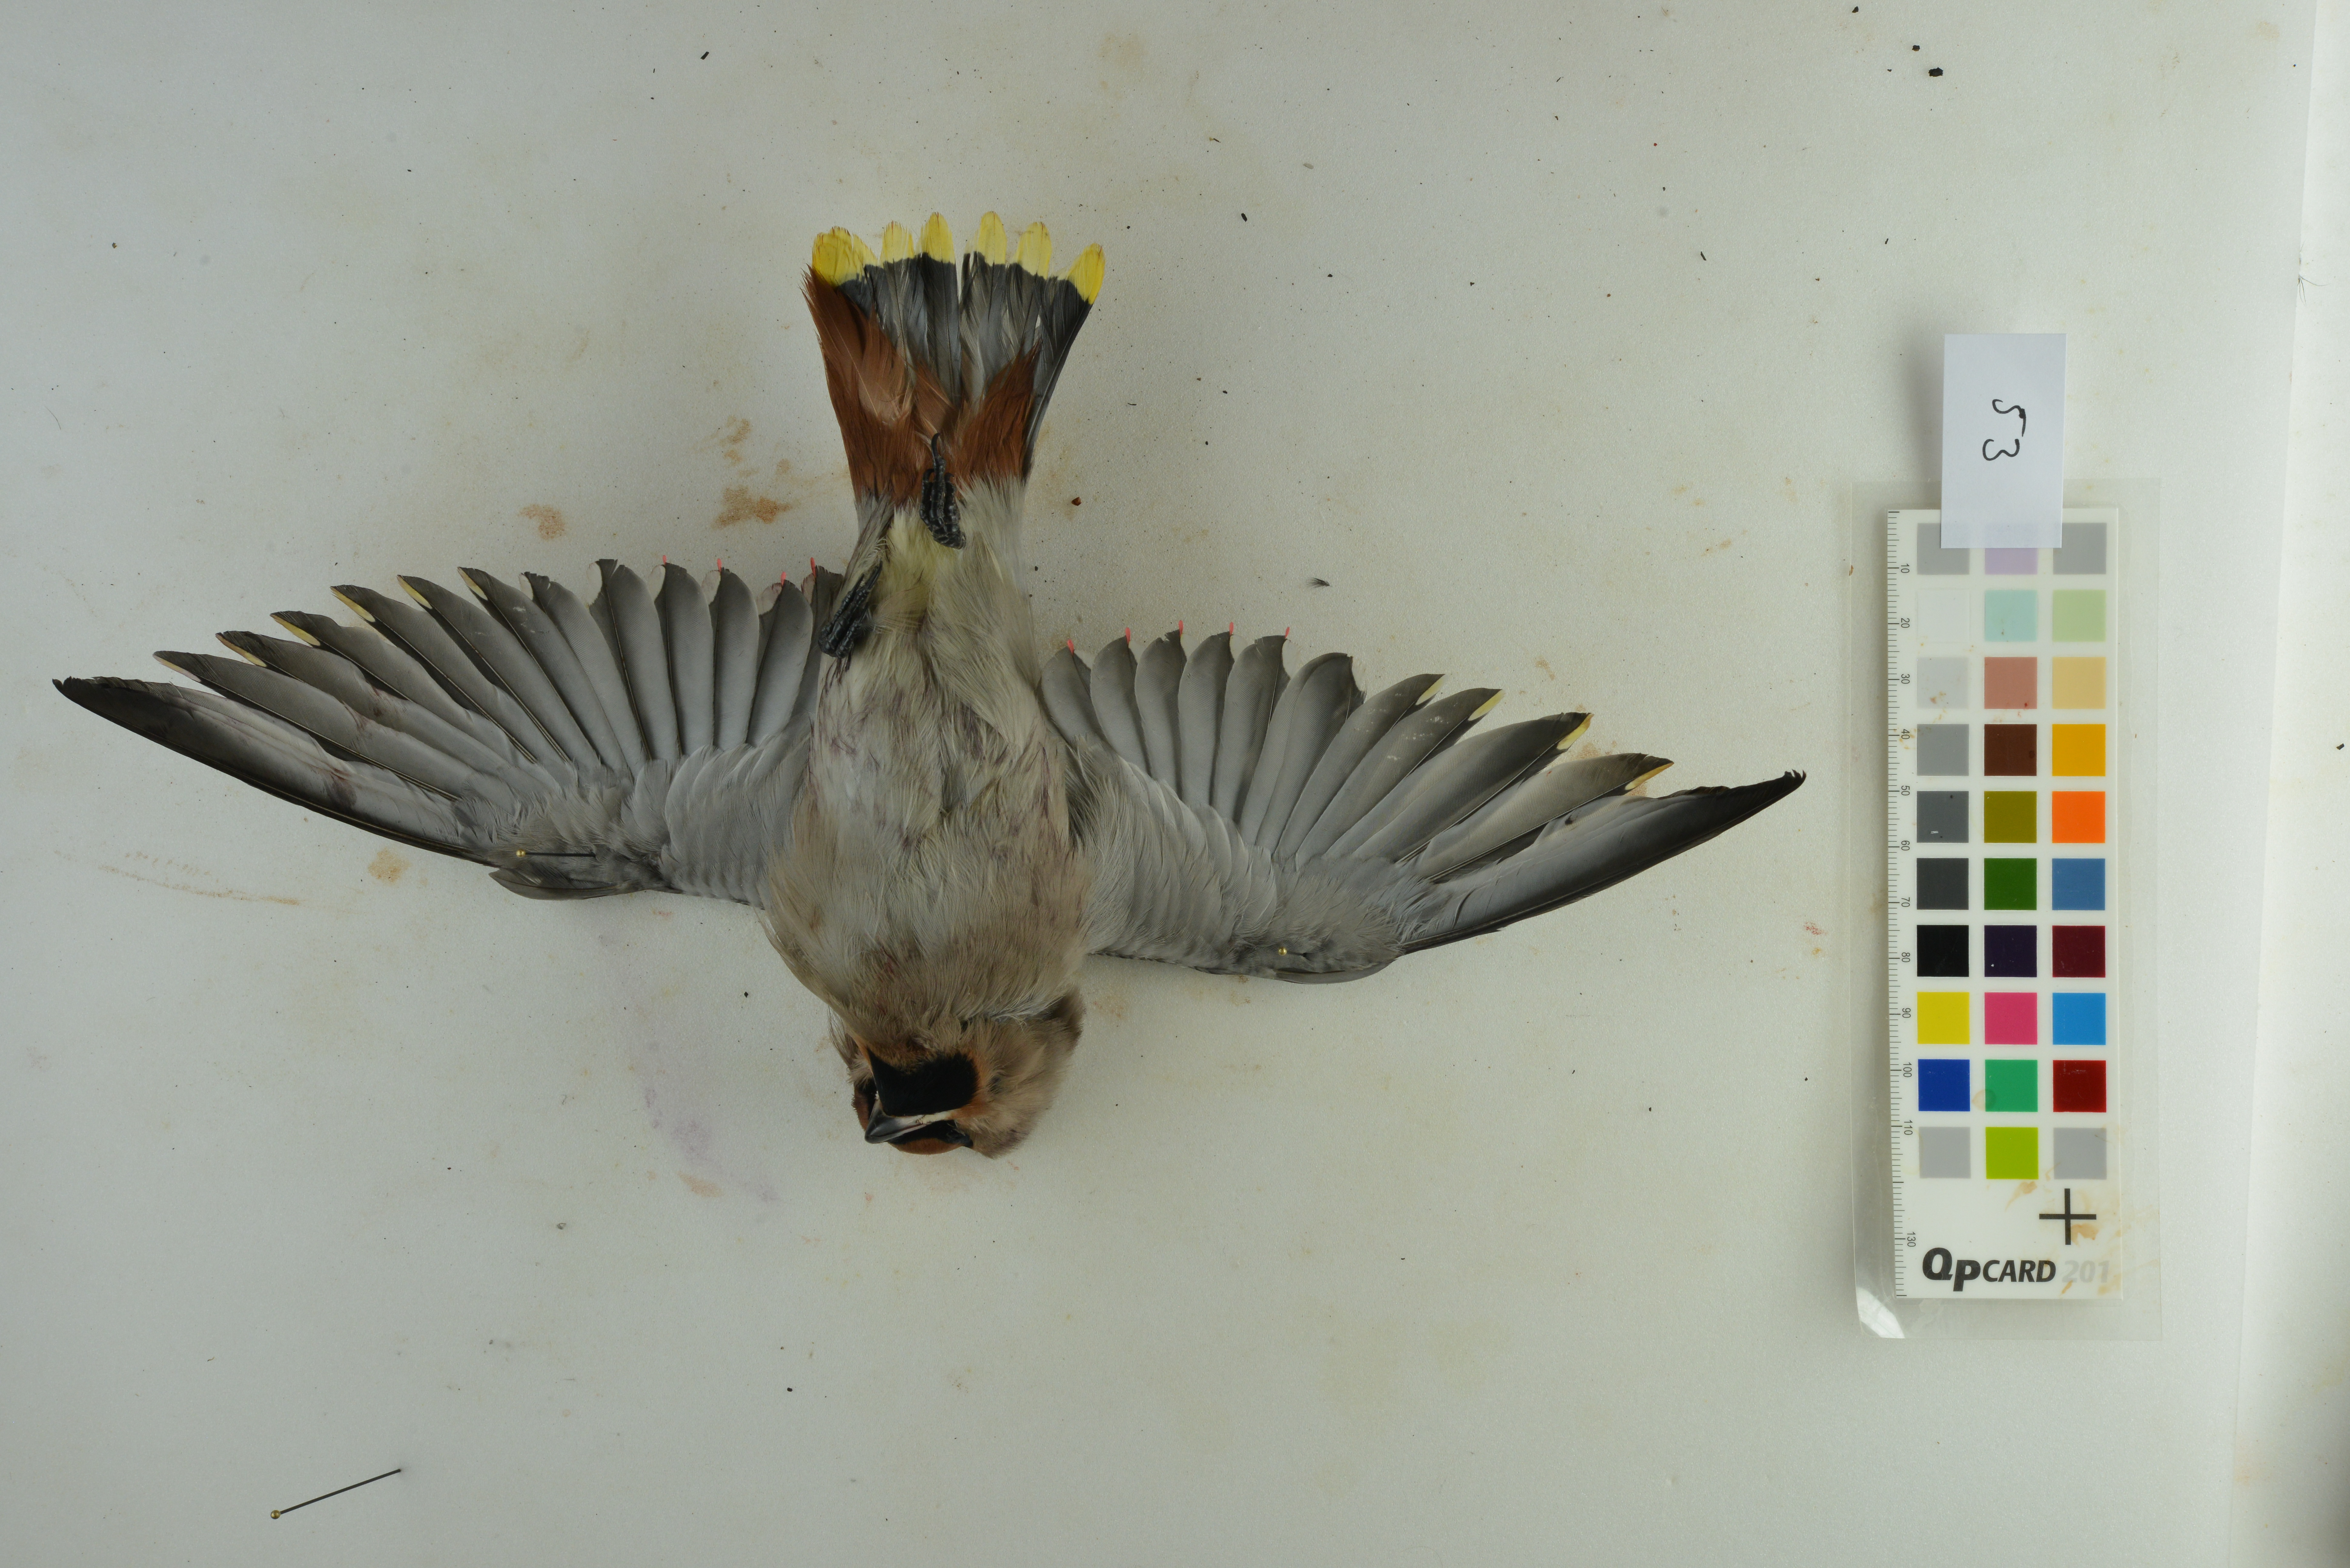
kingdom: Animalia
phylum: Chordata
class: Aves
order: Passeriformes
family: Bombycillidae
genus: Bombycilla
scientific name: Bombycilla garrulus
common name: Bohemian waxwing
